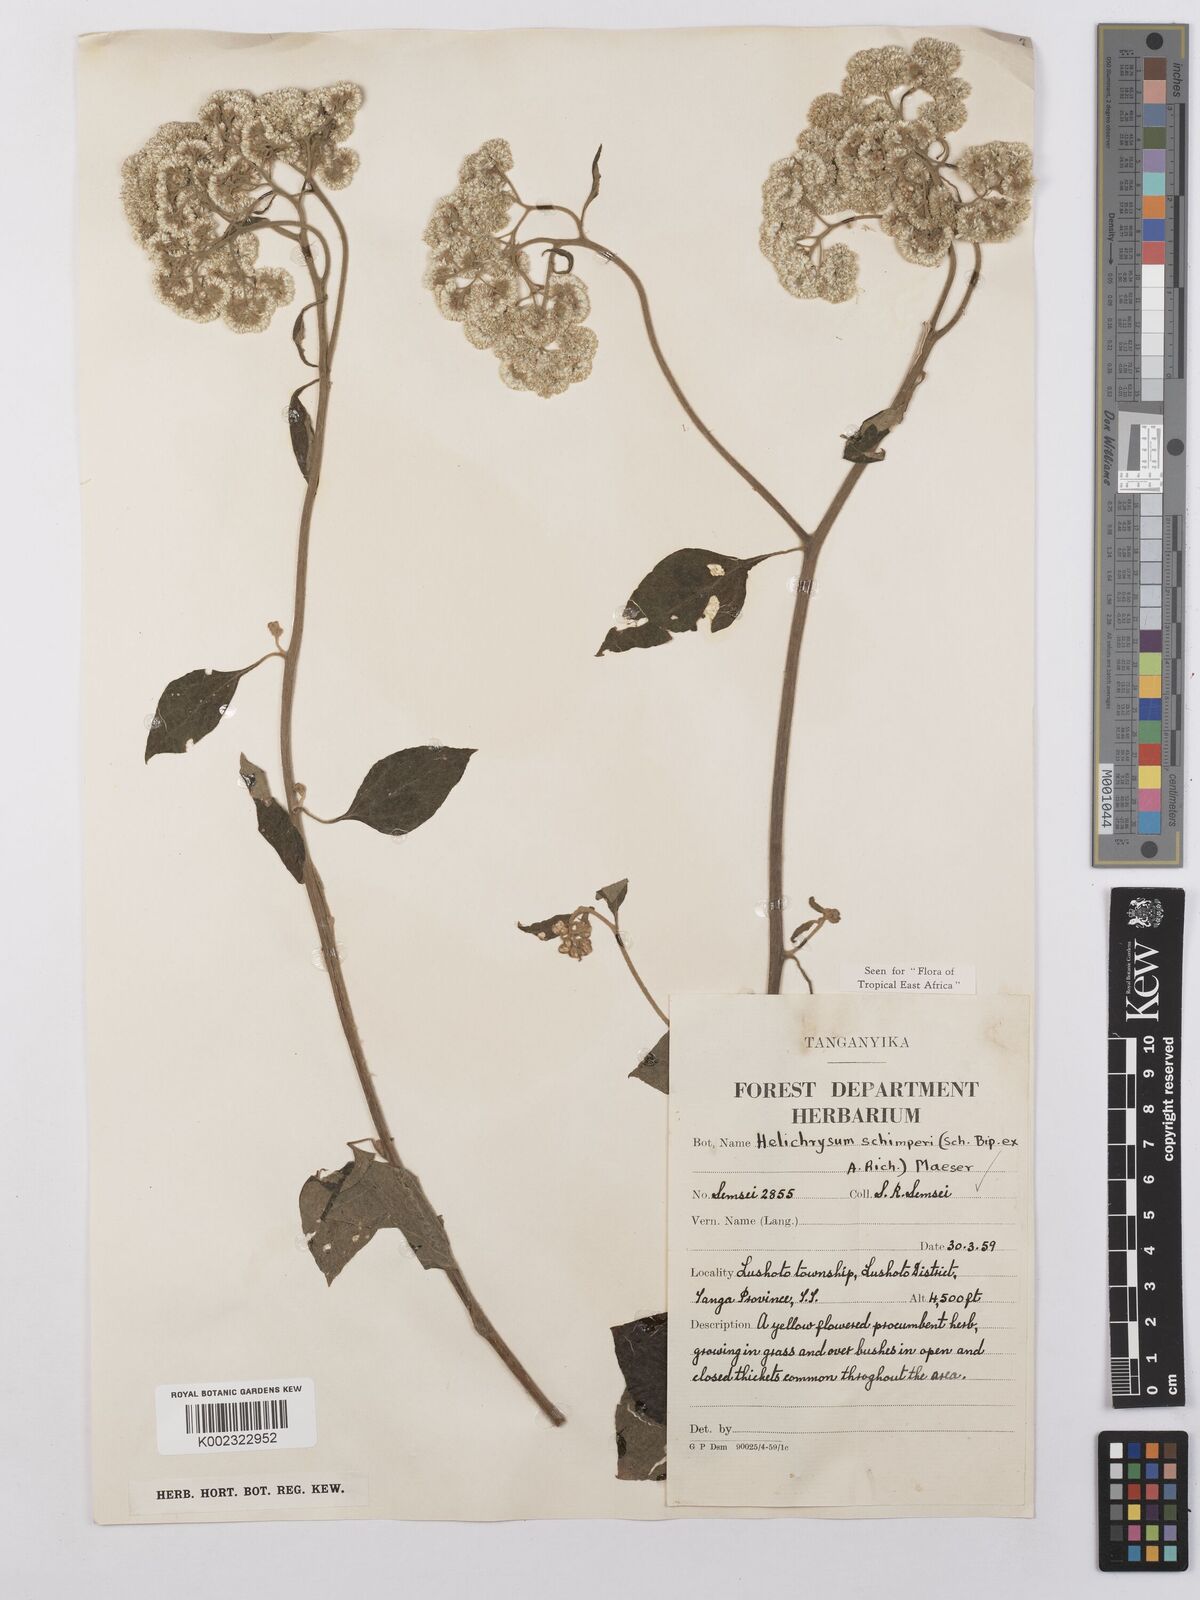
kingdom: Plantae
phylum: Tracheophyta
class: Magnoliopsida
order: Asterales
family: Asteraceae
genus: Helichrysum
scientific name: Helichrysum schimperi
